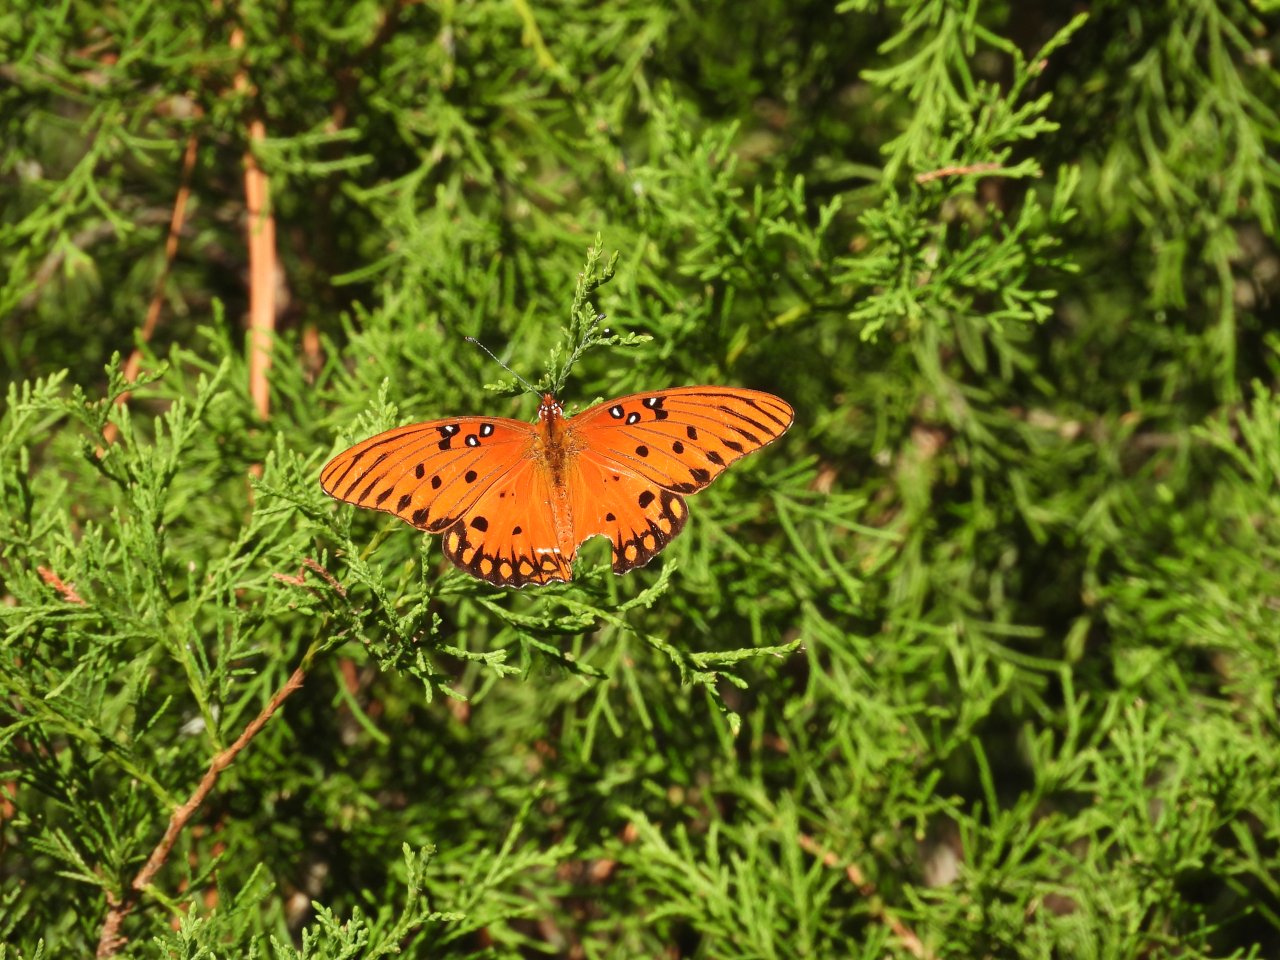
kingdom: Animalia
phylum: Arthropoda
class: Insecta
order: Lepidoptera
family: Nymphalidae
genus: Dione
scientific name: Dione vanillae
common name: Gulf Fritillary
